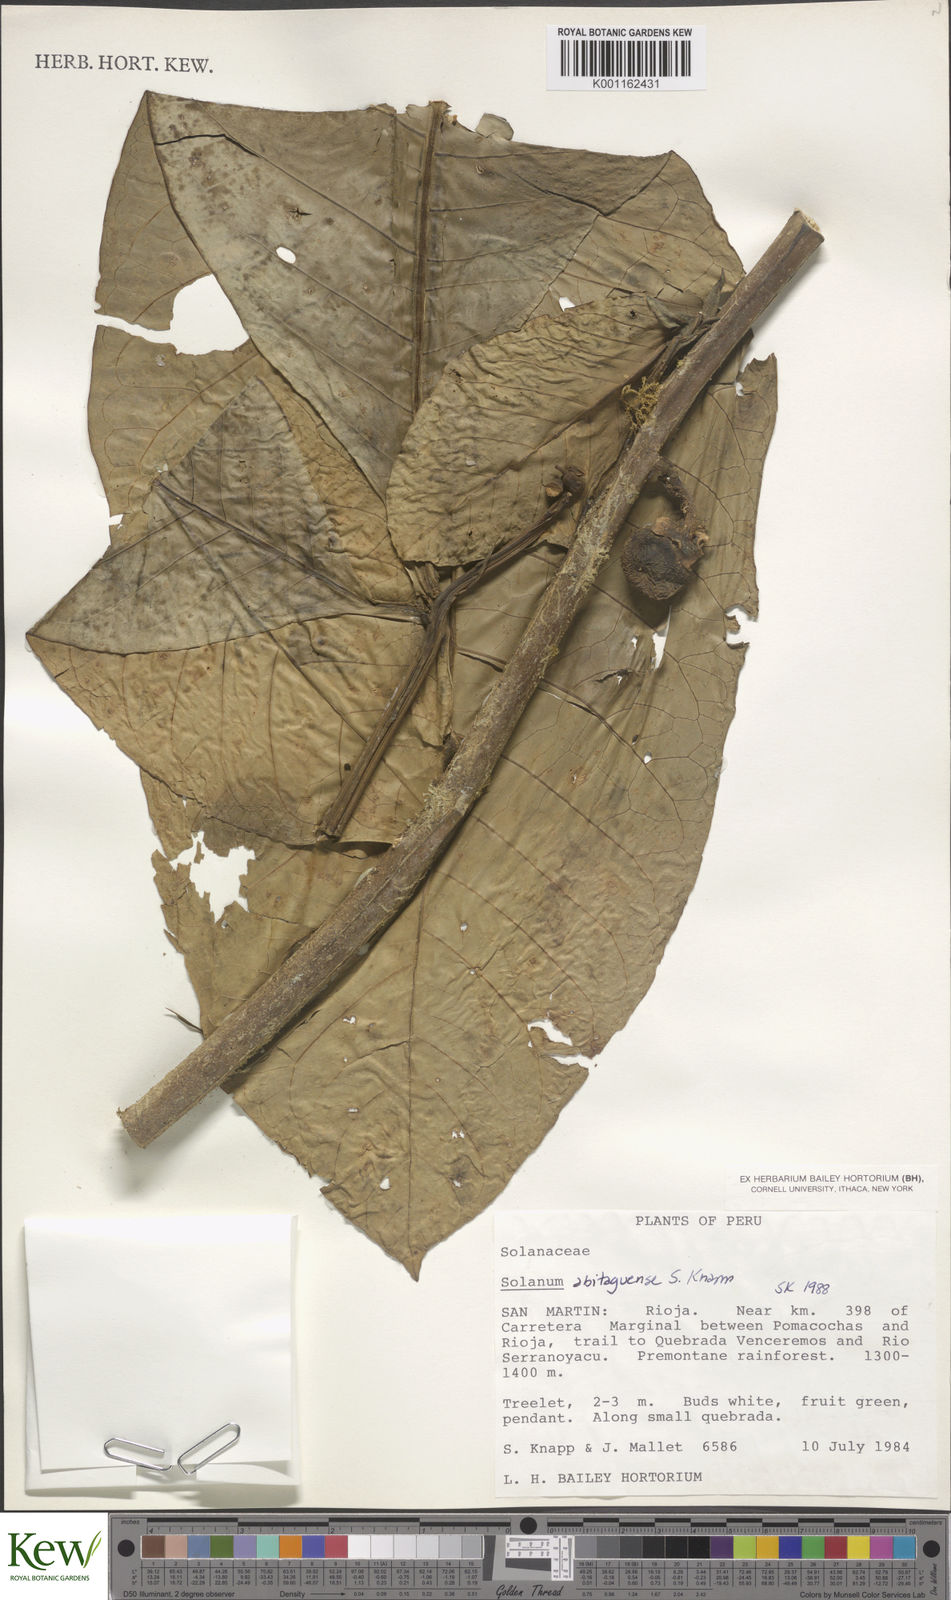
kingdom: Plantae
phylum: Tracheophyta
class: Magnoliopsida
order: Solanales
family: Solanaceae
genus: Solanum
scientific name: Solanum abitaguense
